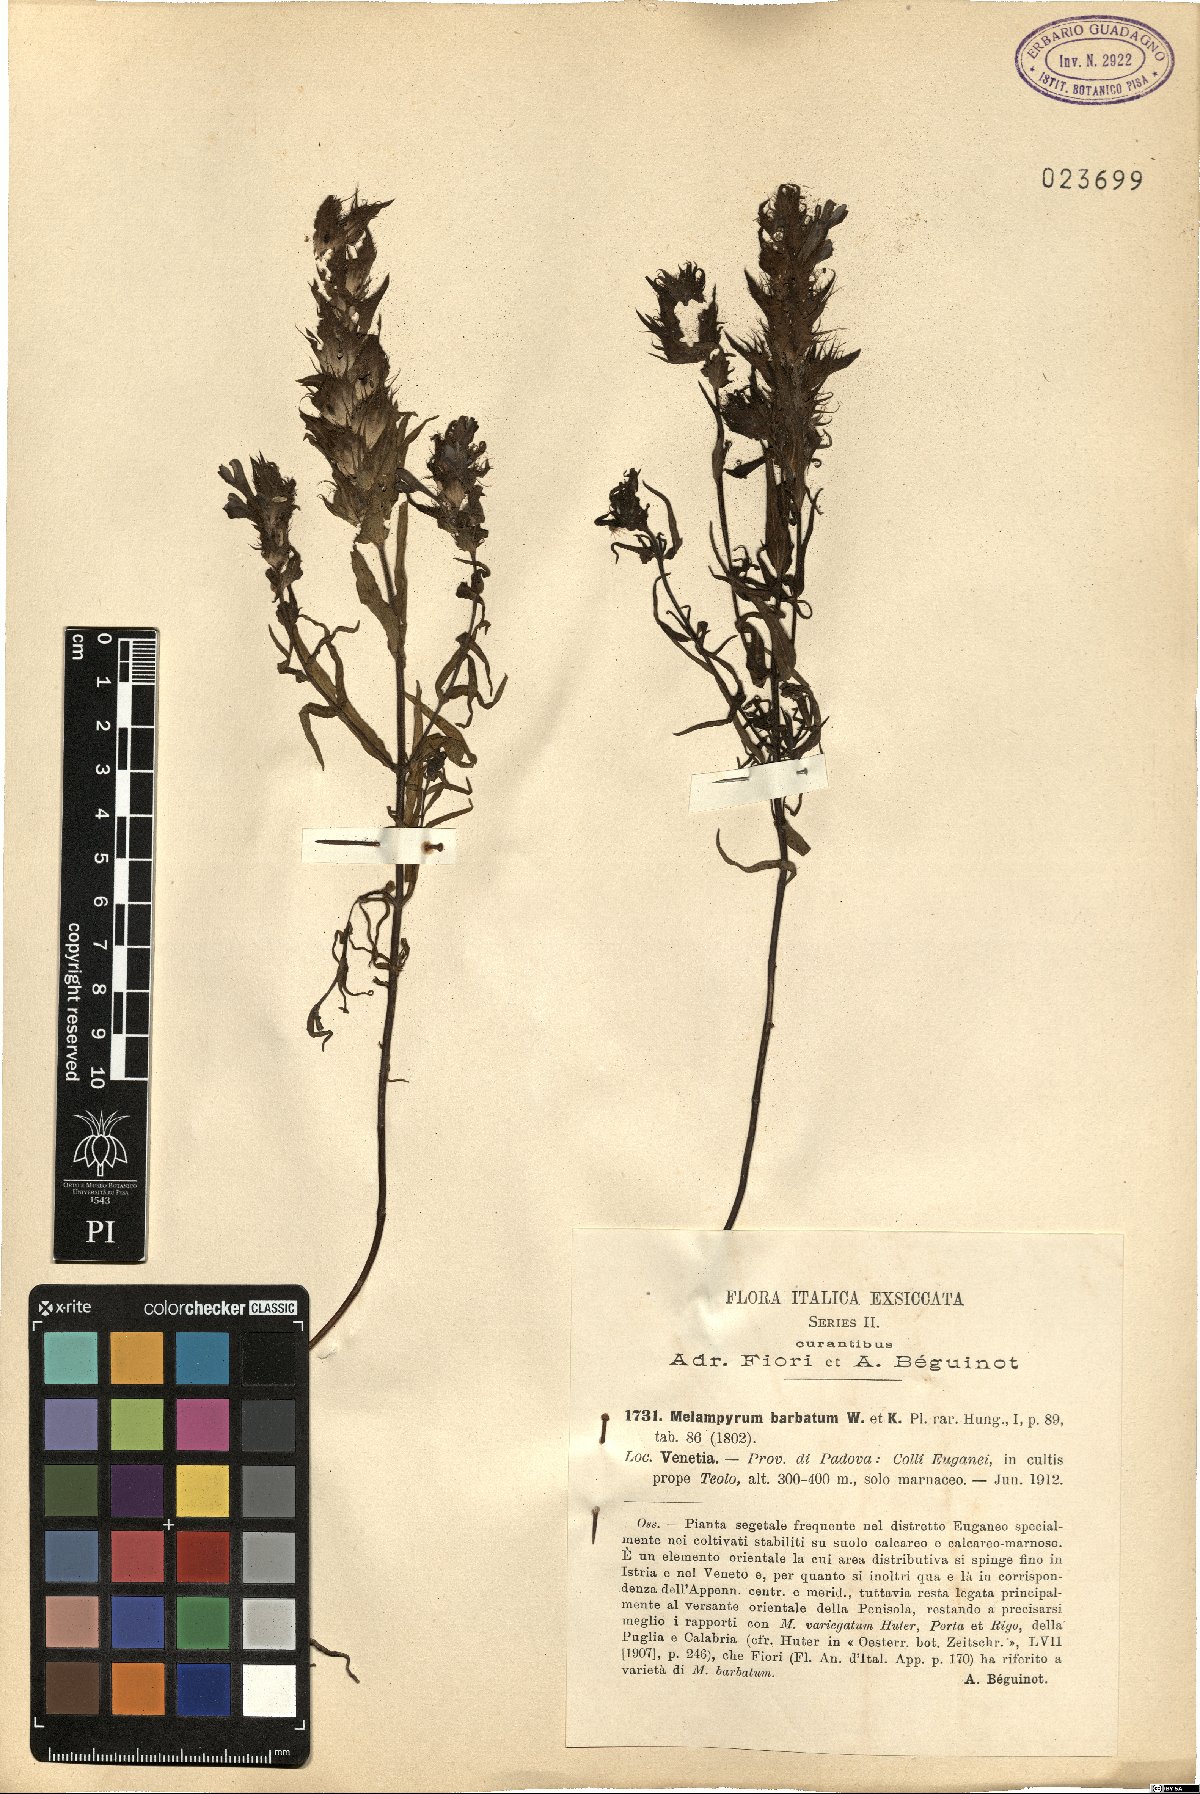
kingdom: Plantae
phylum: Tracheophyta
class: Magnoliopsida
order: Lamiales
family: Orobanchaceae
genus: Melampyrum
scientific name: Melampyrum barbatum
